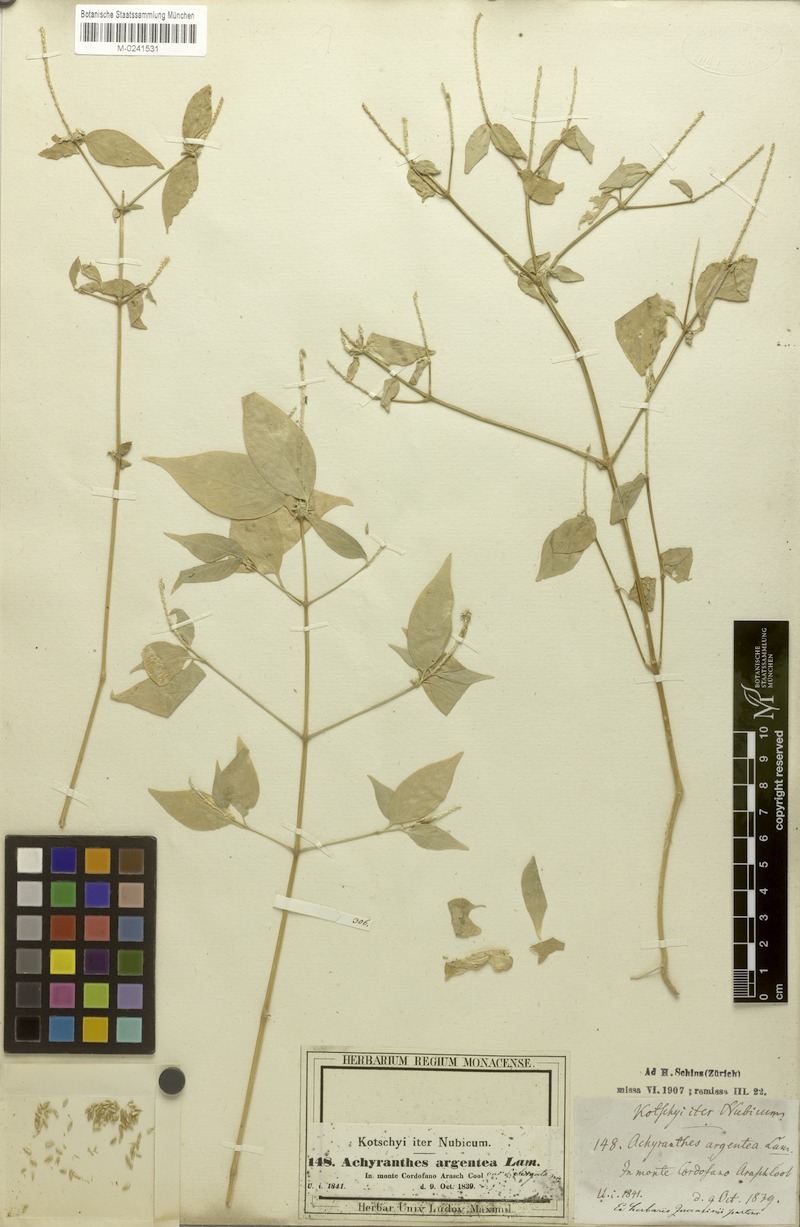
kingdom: Plantae
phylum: Tracheophyta
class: Magnoliopsida
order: Caryophyllales
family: Amaranthaceae
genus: Achyranthes
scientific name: Achyranthes aspera
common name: Devil's horsewhip
